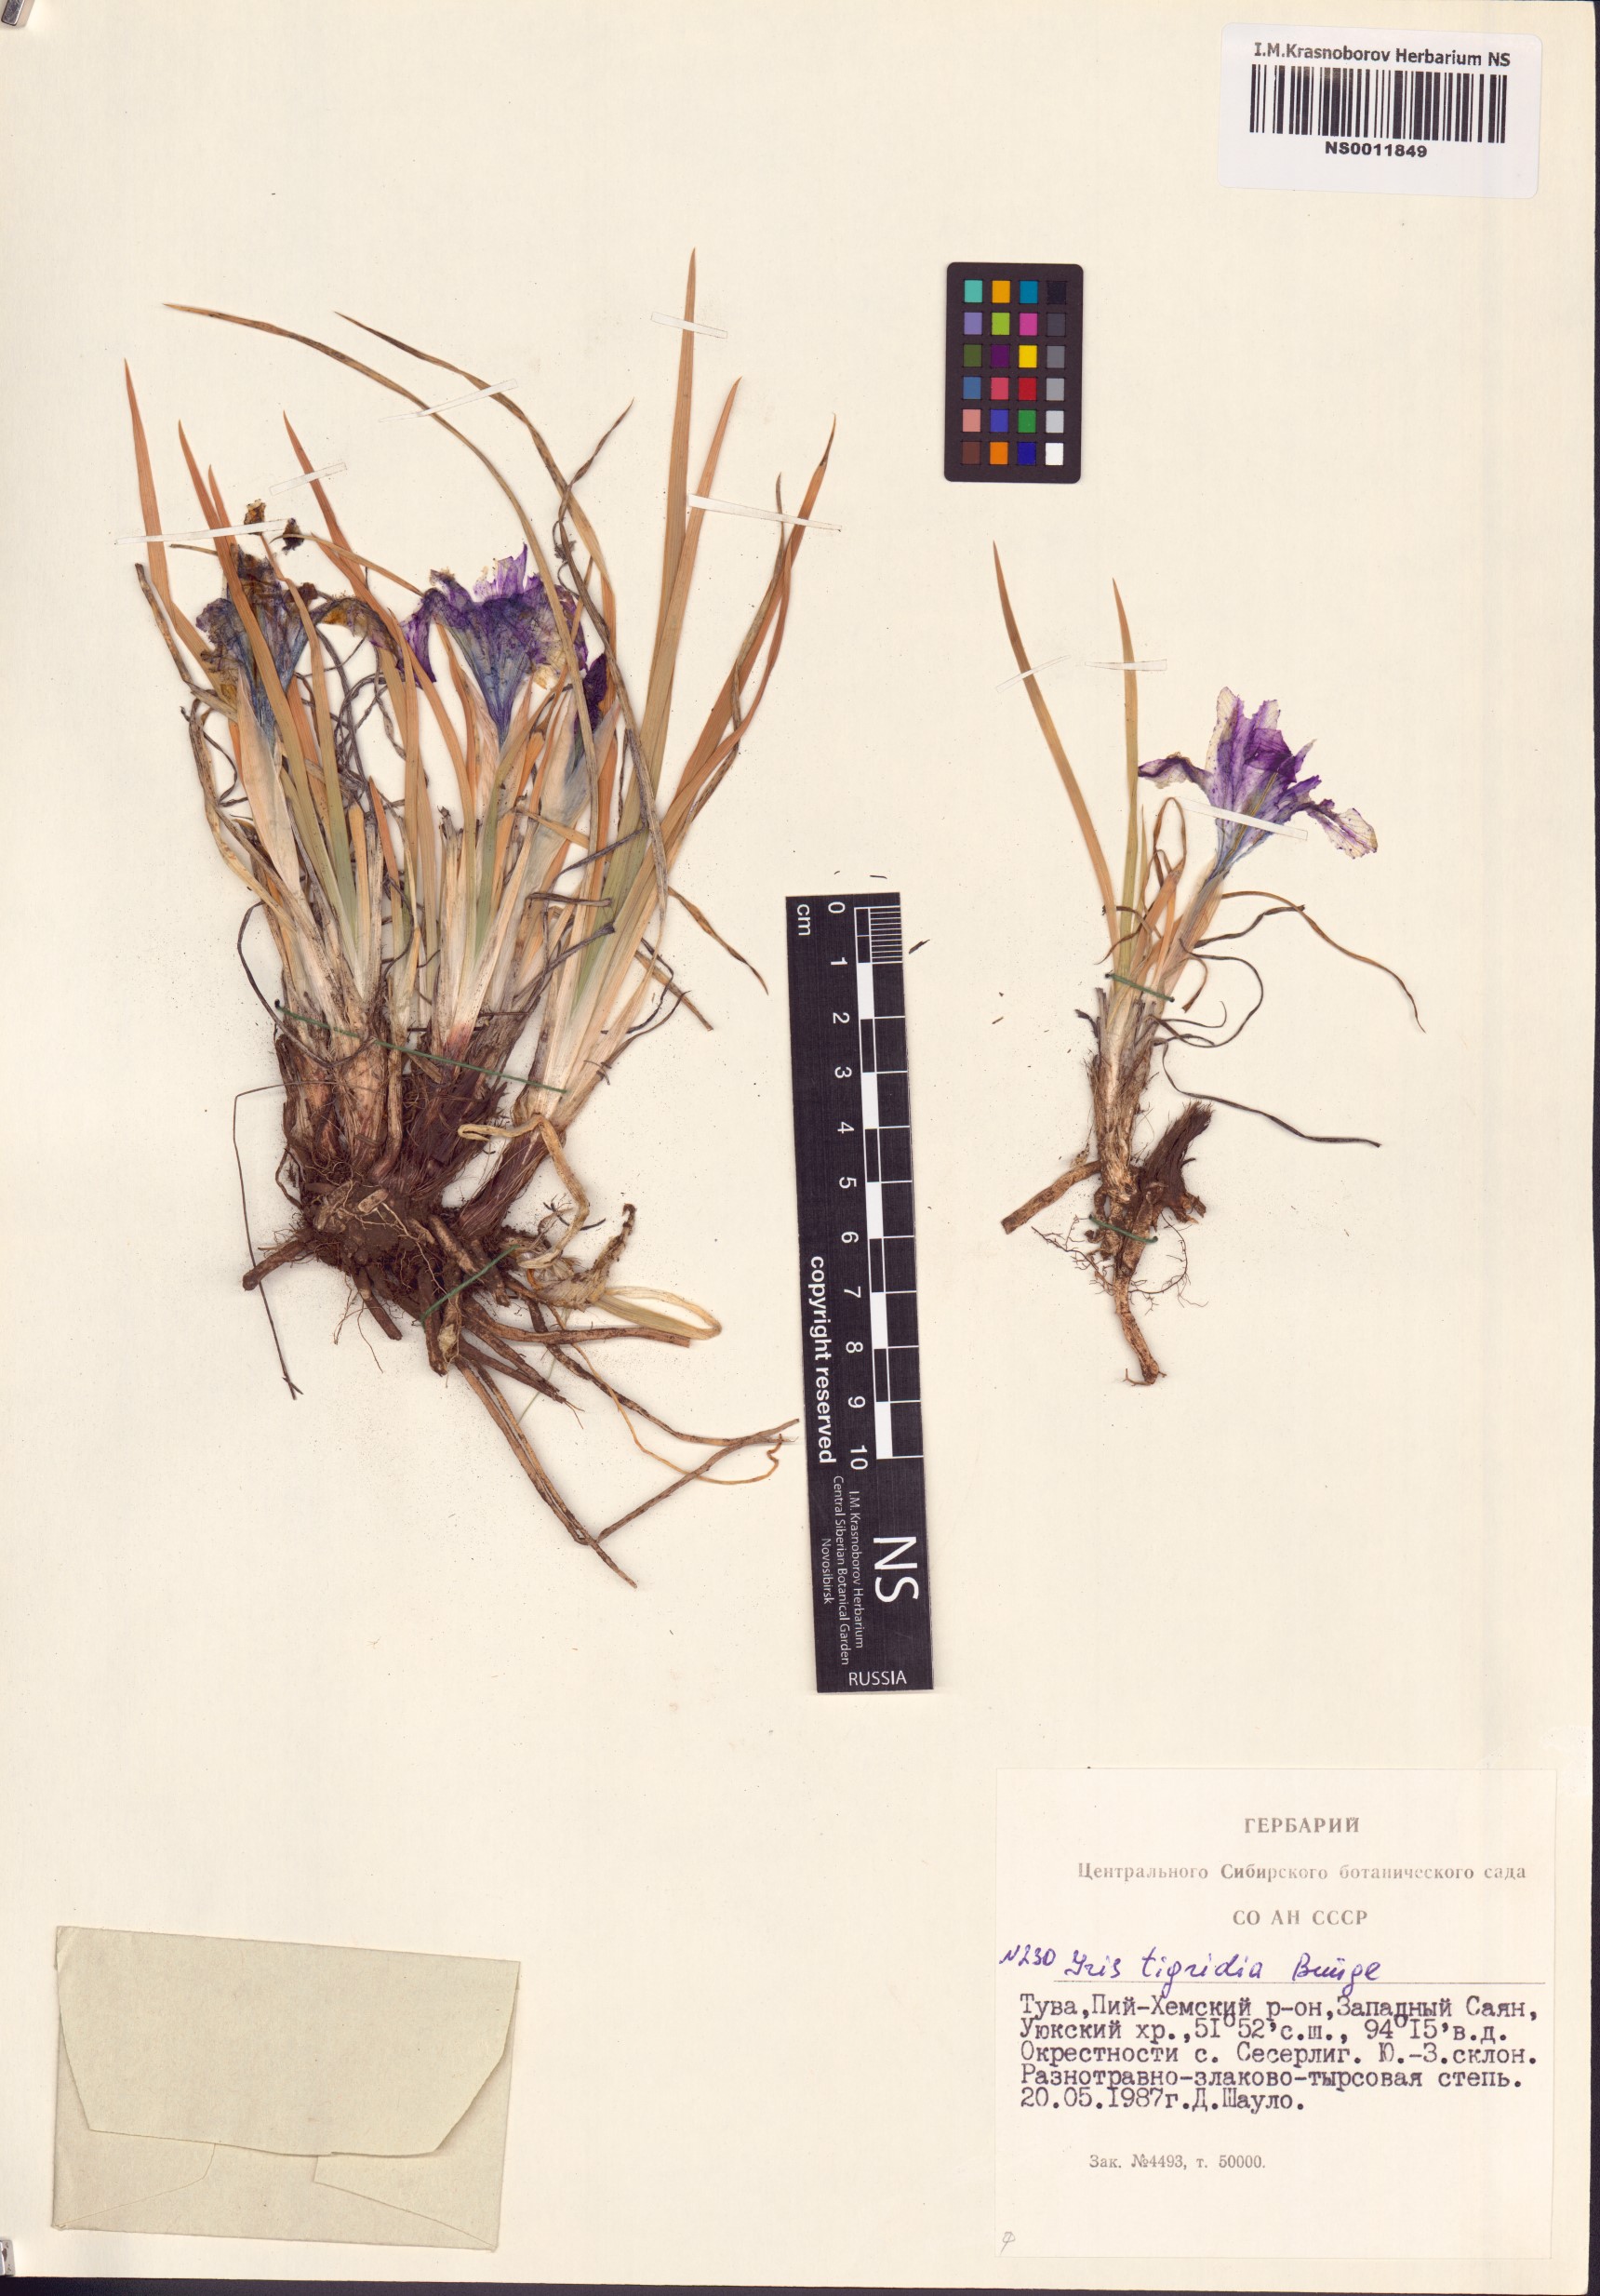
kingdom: Plantae
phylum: Tracheophyta
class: Liliopsida
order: Asparagales
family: Iridaceae
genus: Iris
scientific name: Iris tigridia
